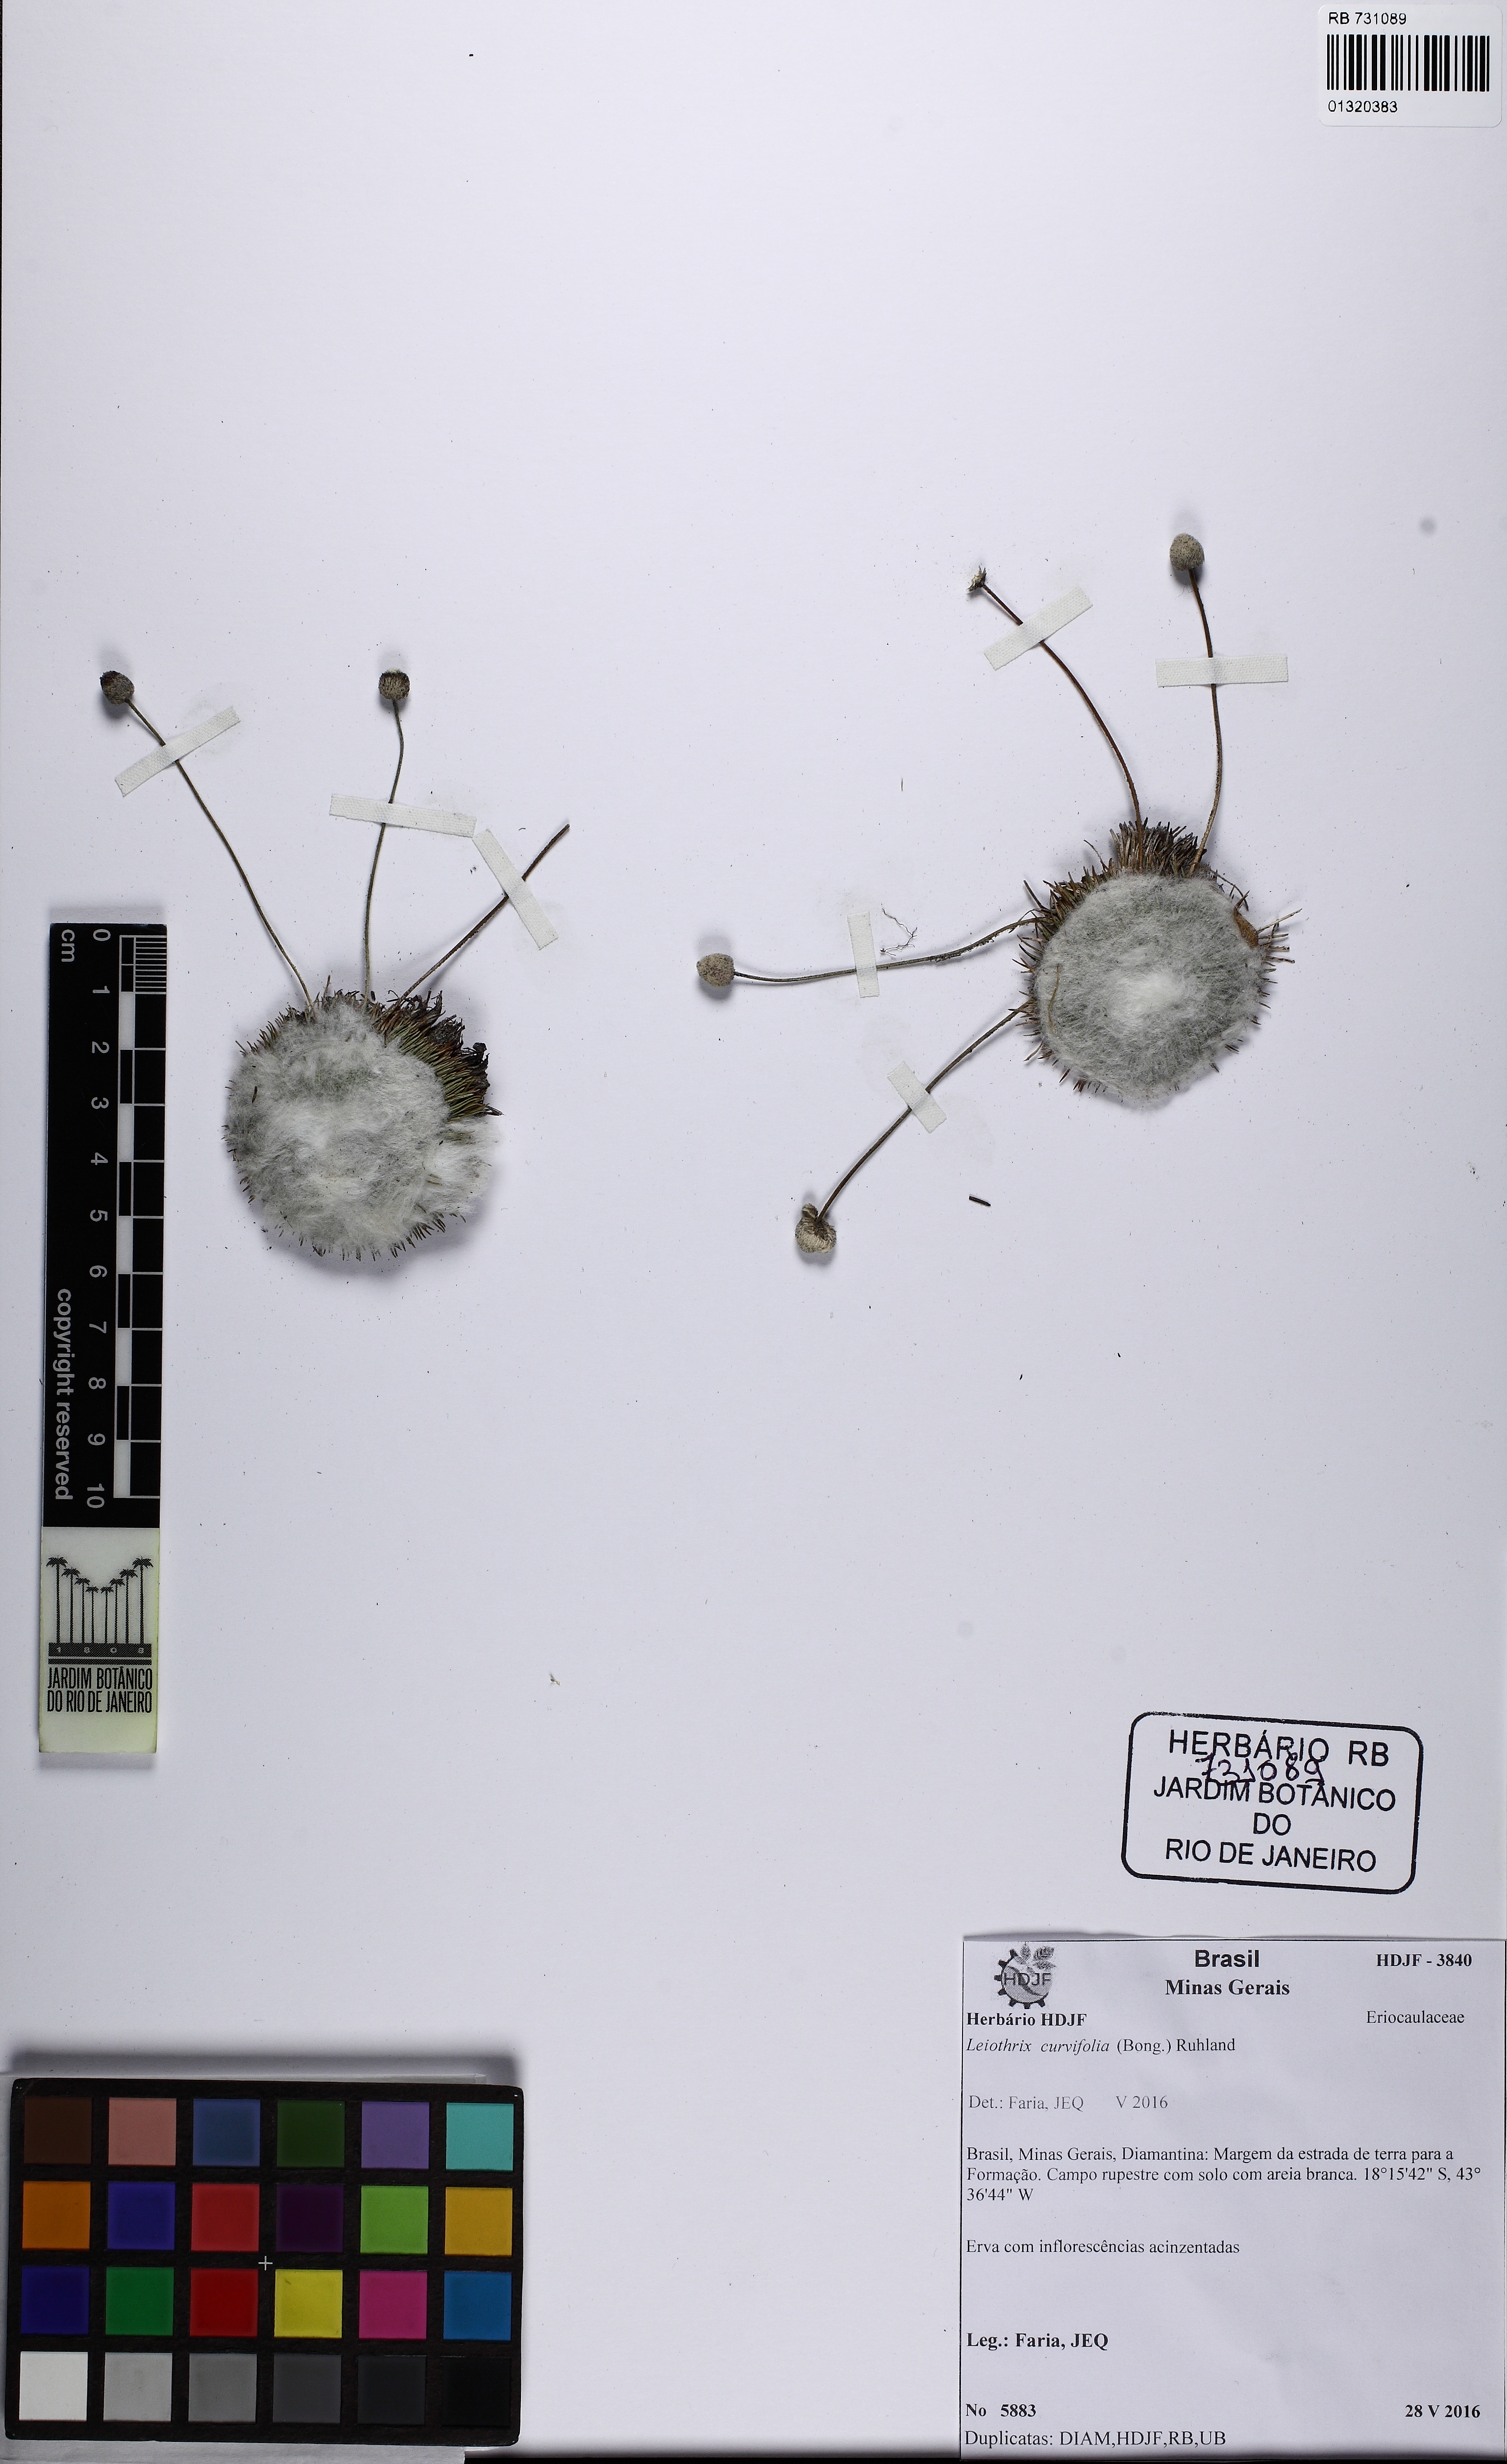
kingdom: Plantae
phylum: Tracheophyta
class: Liliopsida
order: Poales
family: Eriocaulaceae
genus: Leiothrix
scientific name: Leiothrix curvifolia
